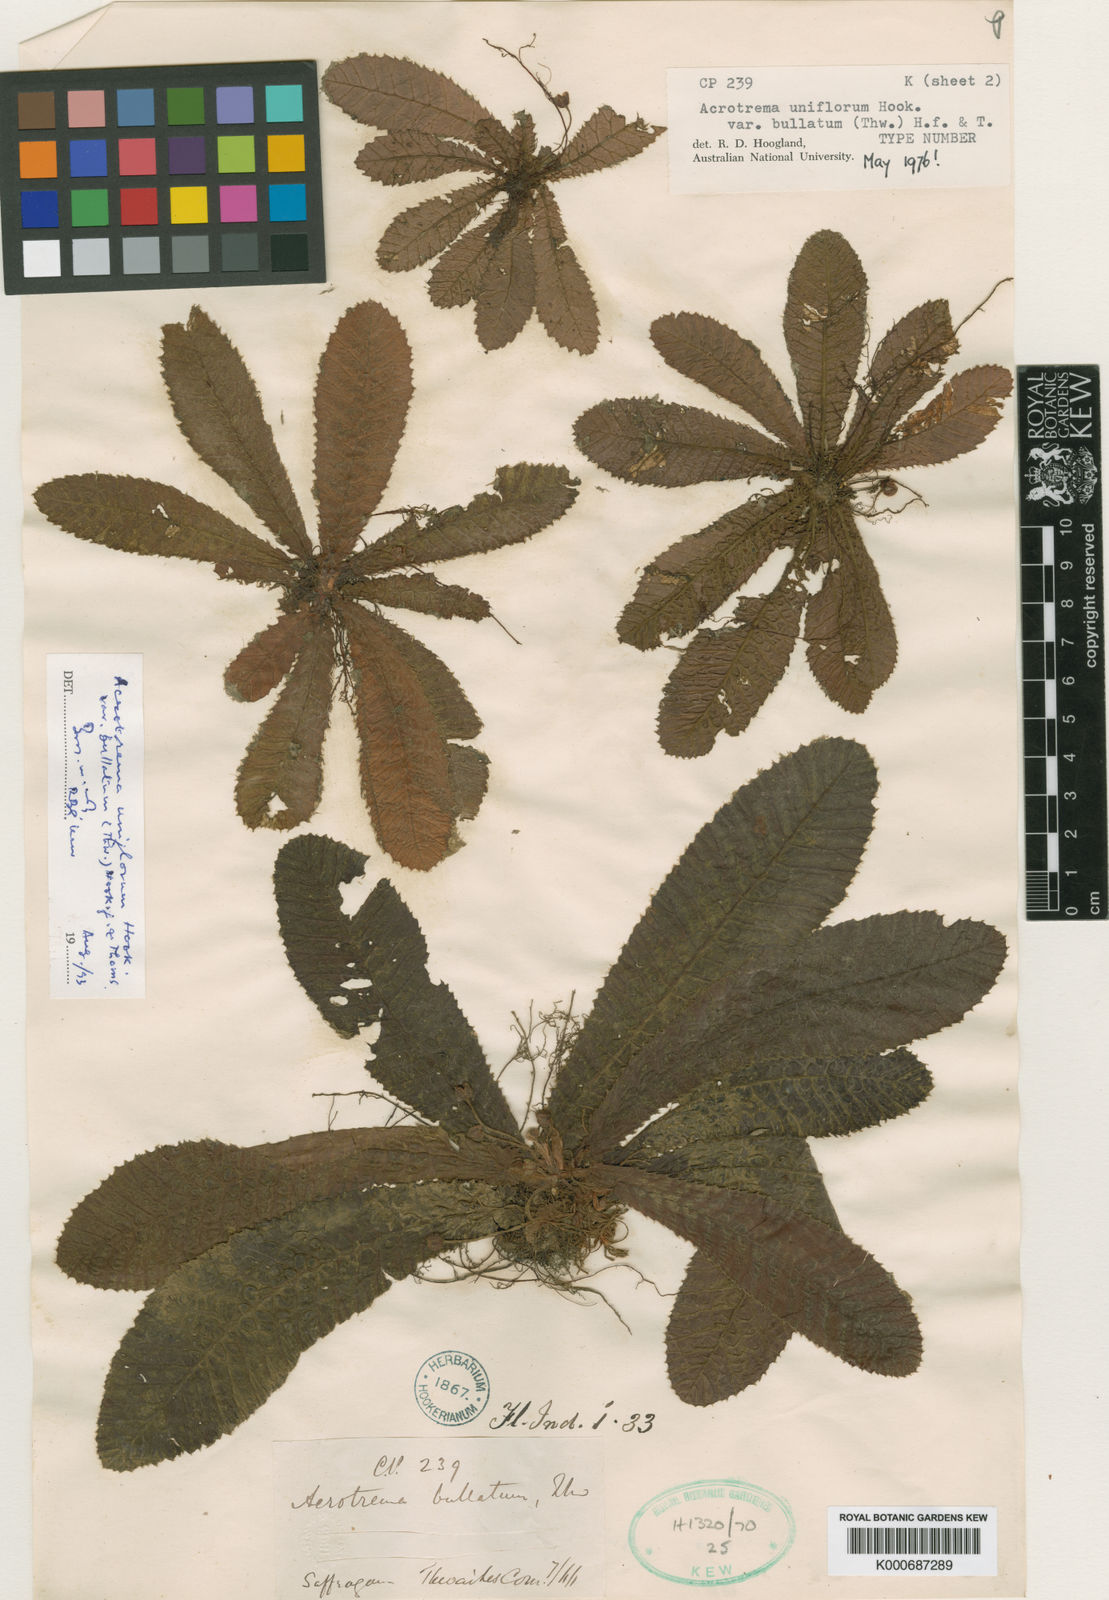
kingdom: Plantae
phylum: Tracheophyta
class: Magnoliopsida
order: Dilleniales
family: Dilleniaceae
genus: Acrotrema
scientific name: Acrotrema uniflorum
